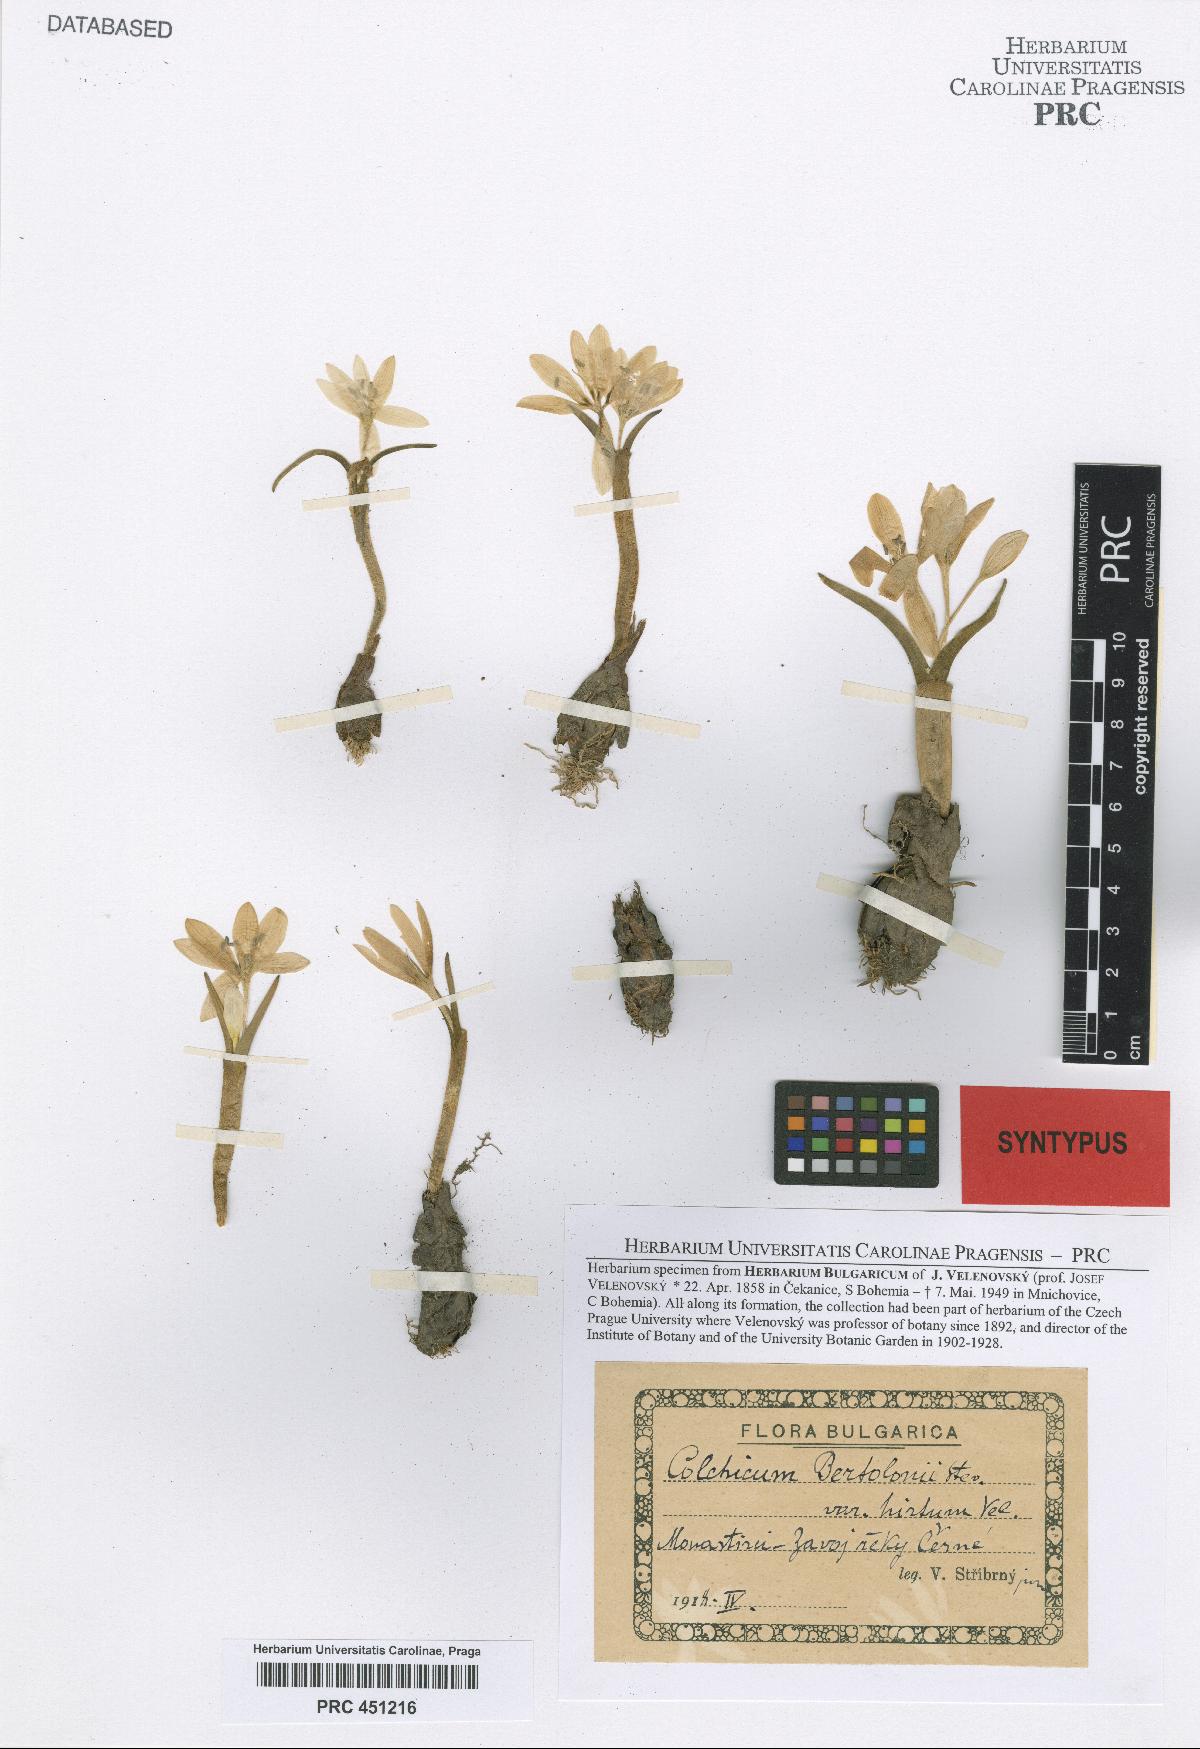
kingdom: Plantae
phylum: Tracheophyta
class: Liliopsida
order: Liliales
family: Colchicaceae
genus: Colchicum
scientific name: Colchicum doerfleri
